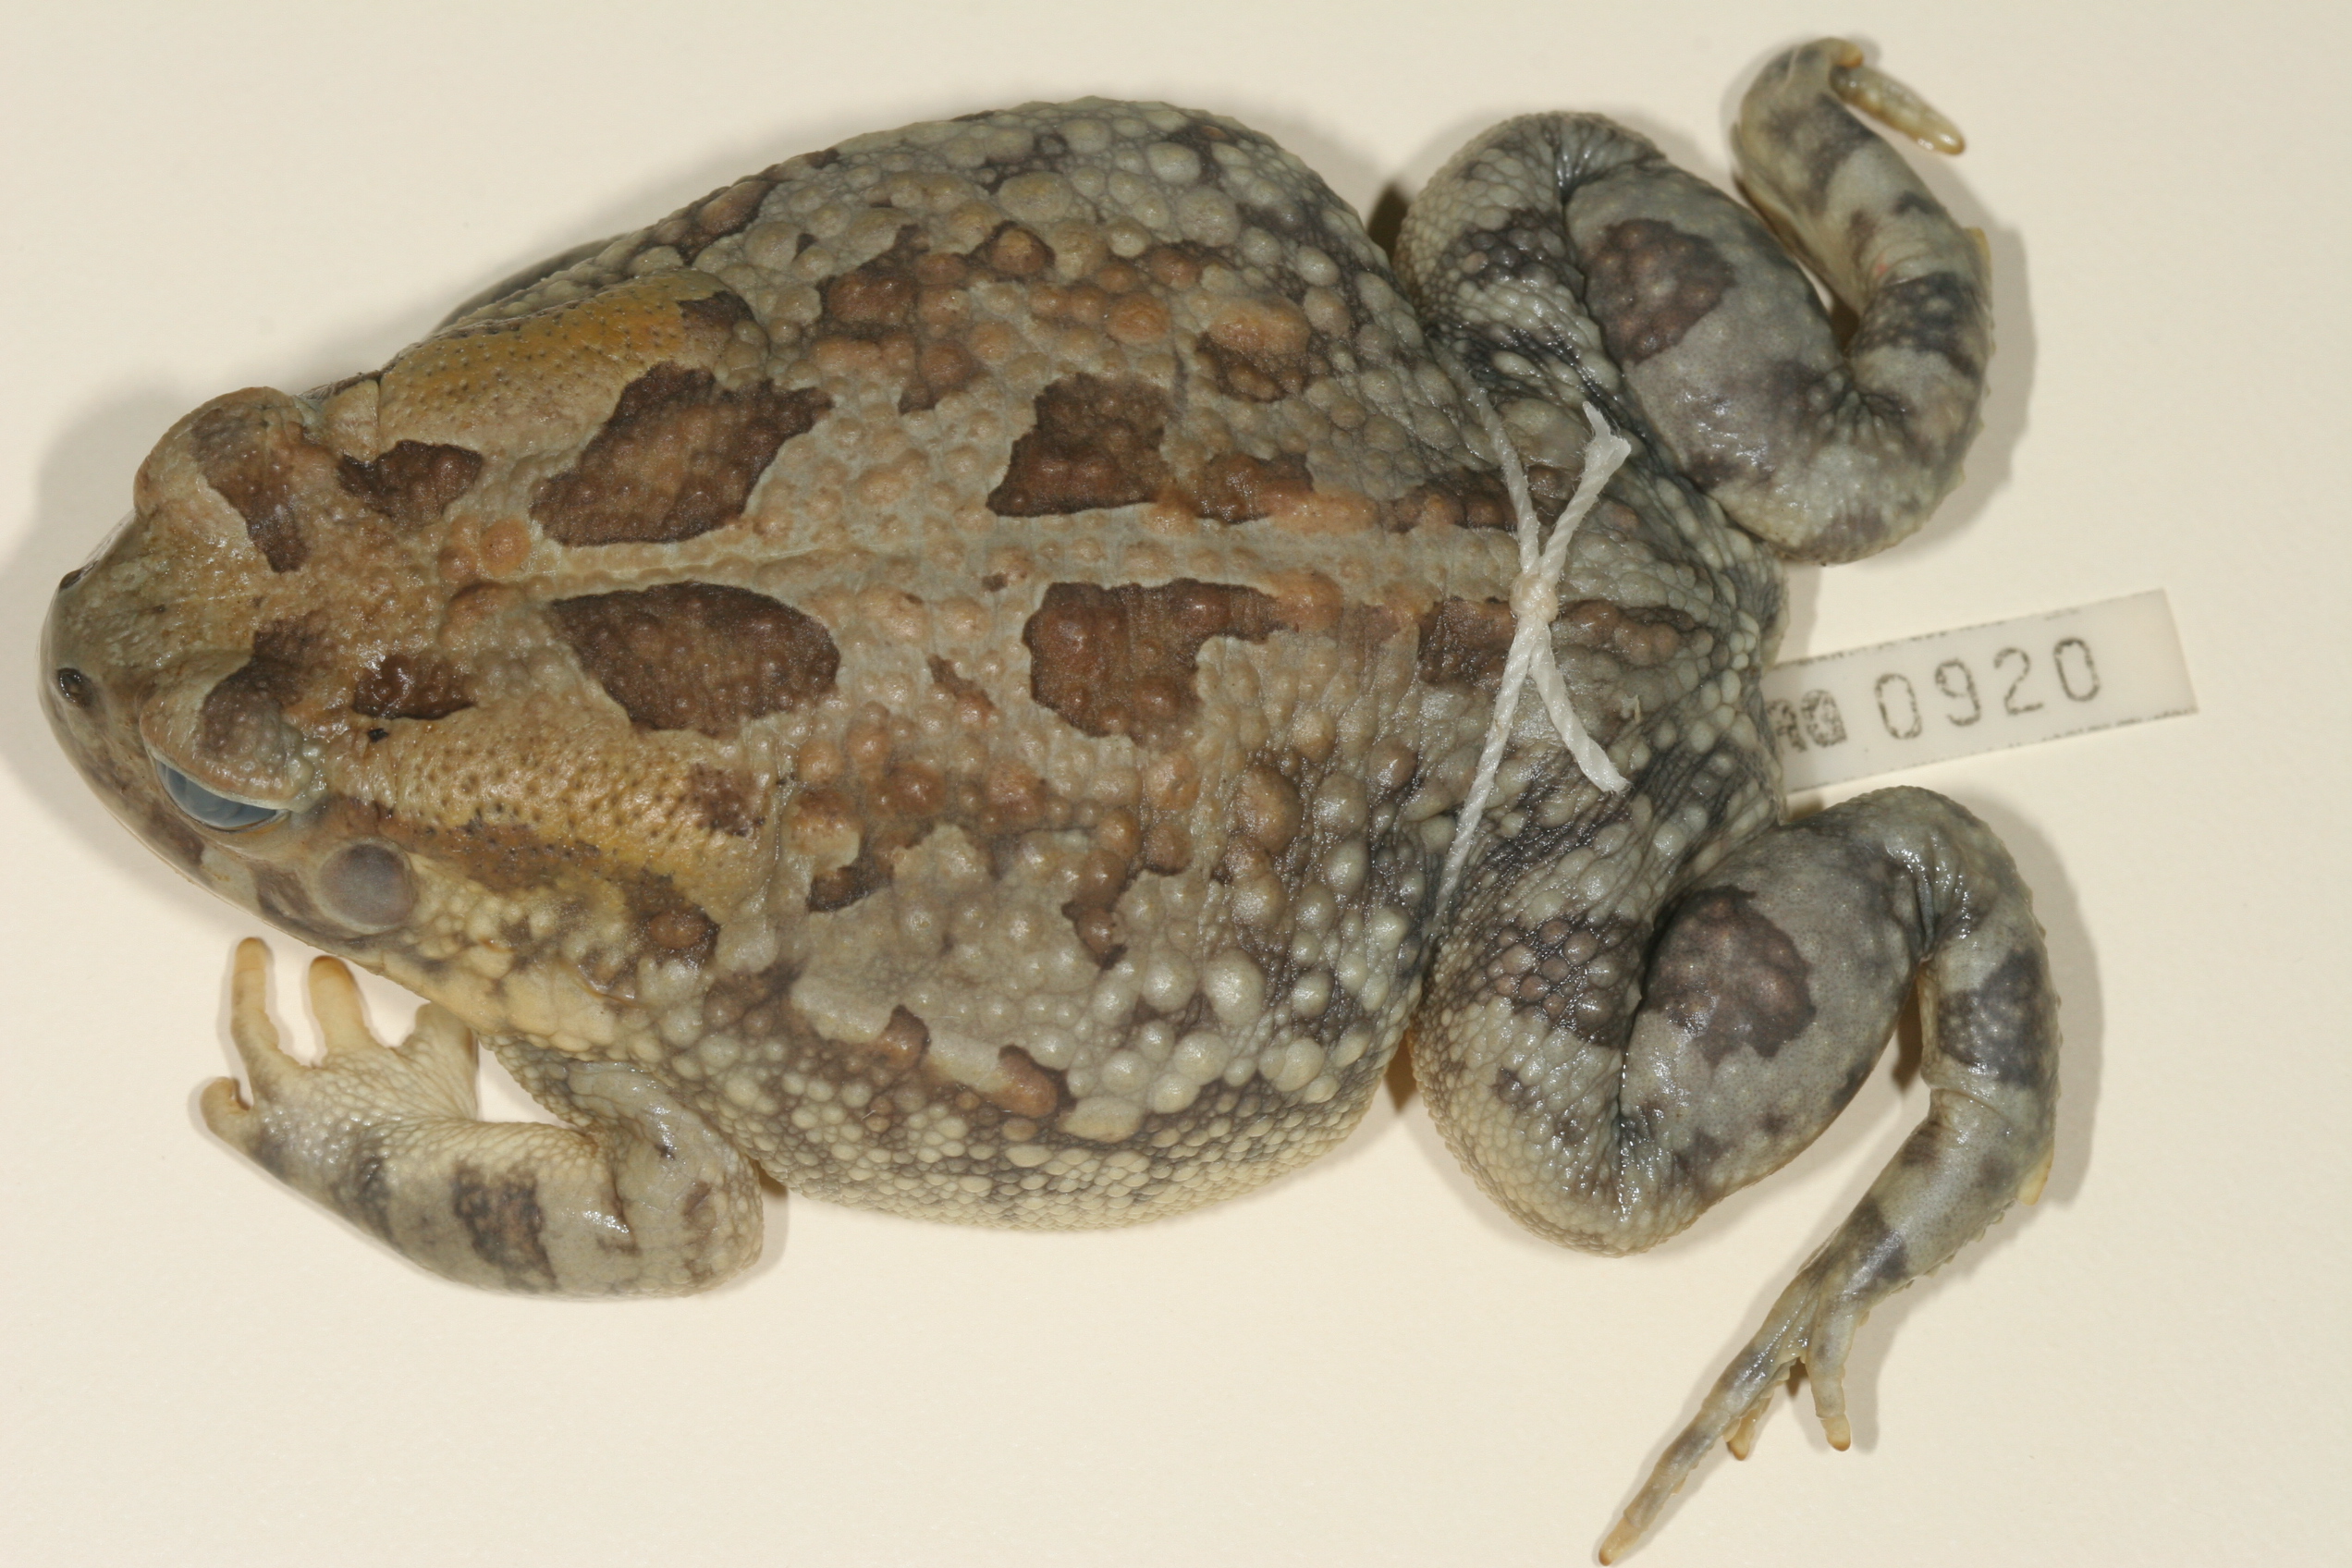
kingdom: Animalia
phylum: Chordata
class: Amphibia
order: Anura
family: Bufonidae
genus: Sclerophrys
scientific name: Sclerophrys poweri
